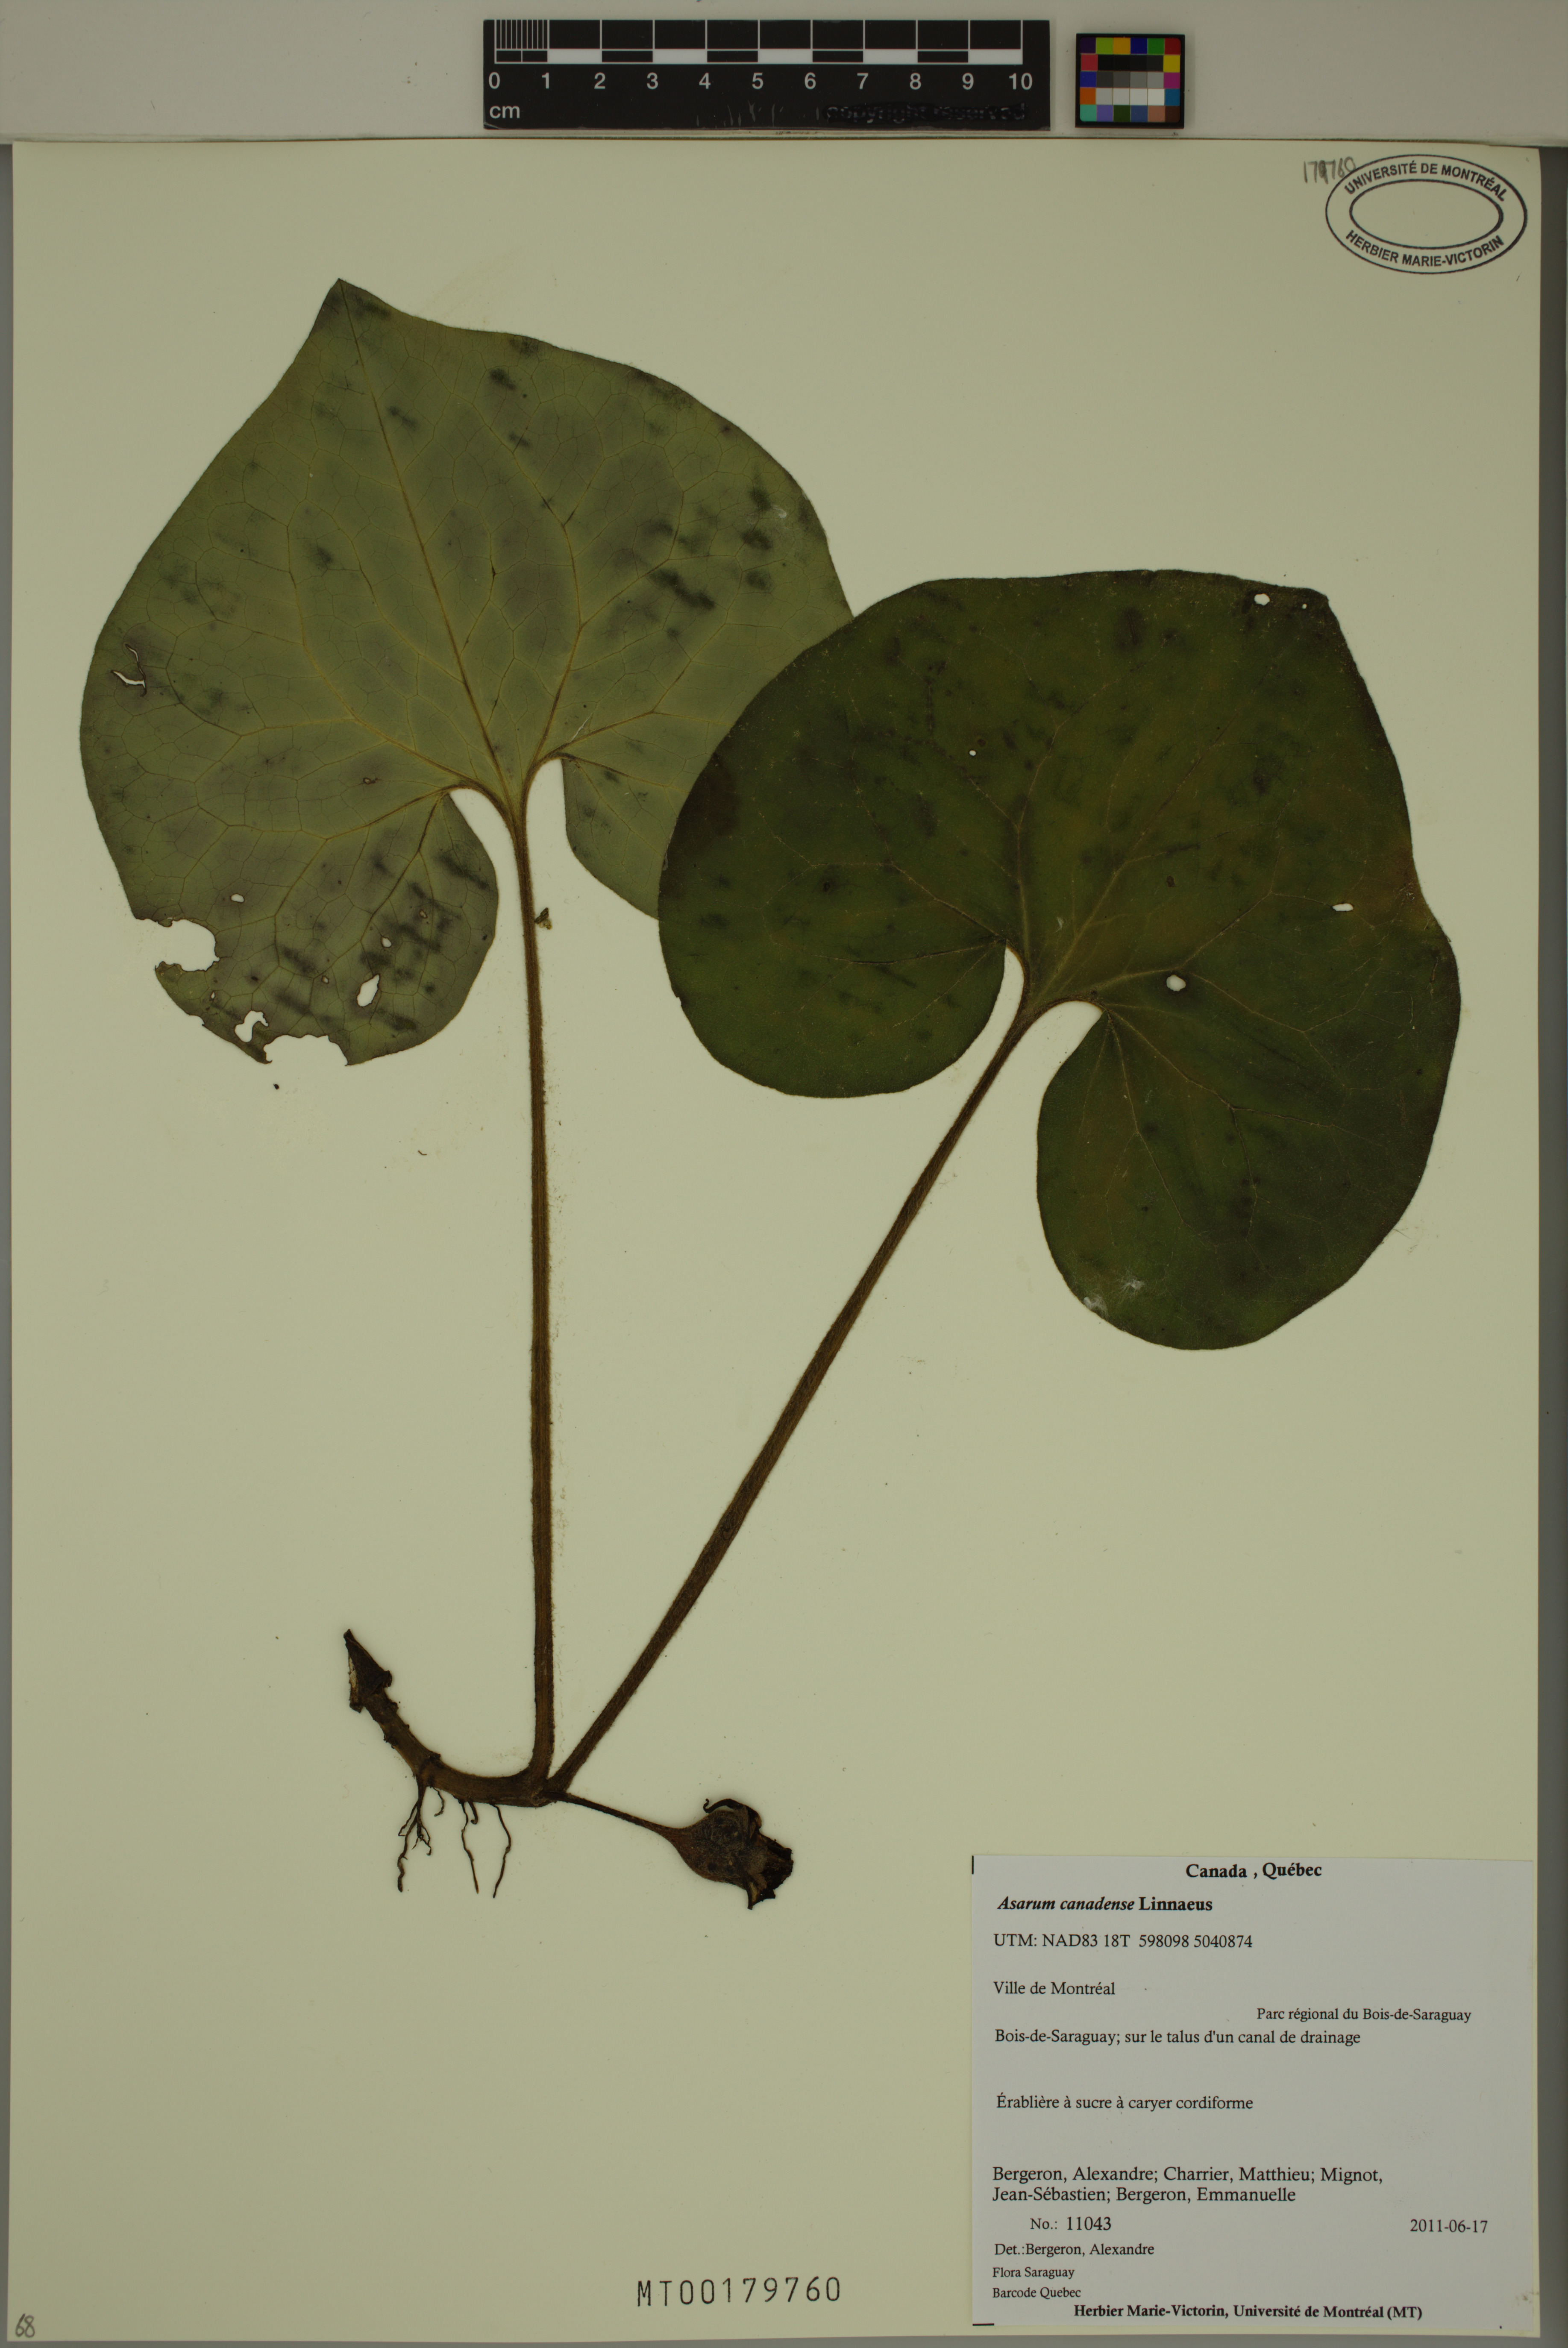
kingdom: Plantae
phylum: Tracheophyta
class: Magnoliopsida
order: Piperales
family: Aristolochiaceae
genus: Asarum
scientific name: Asarum canadense
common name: Wild ginger
